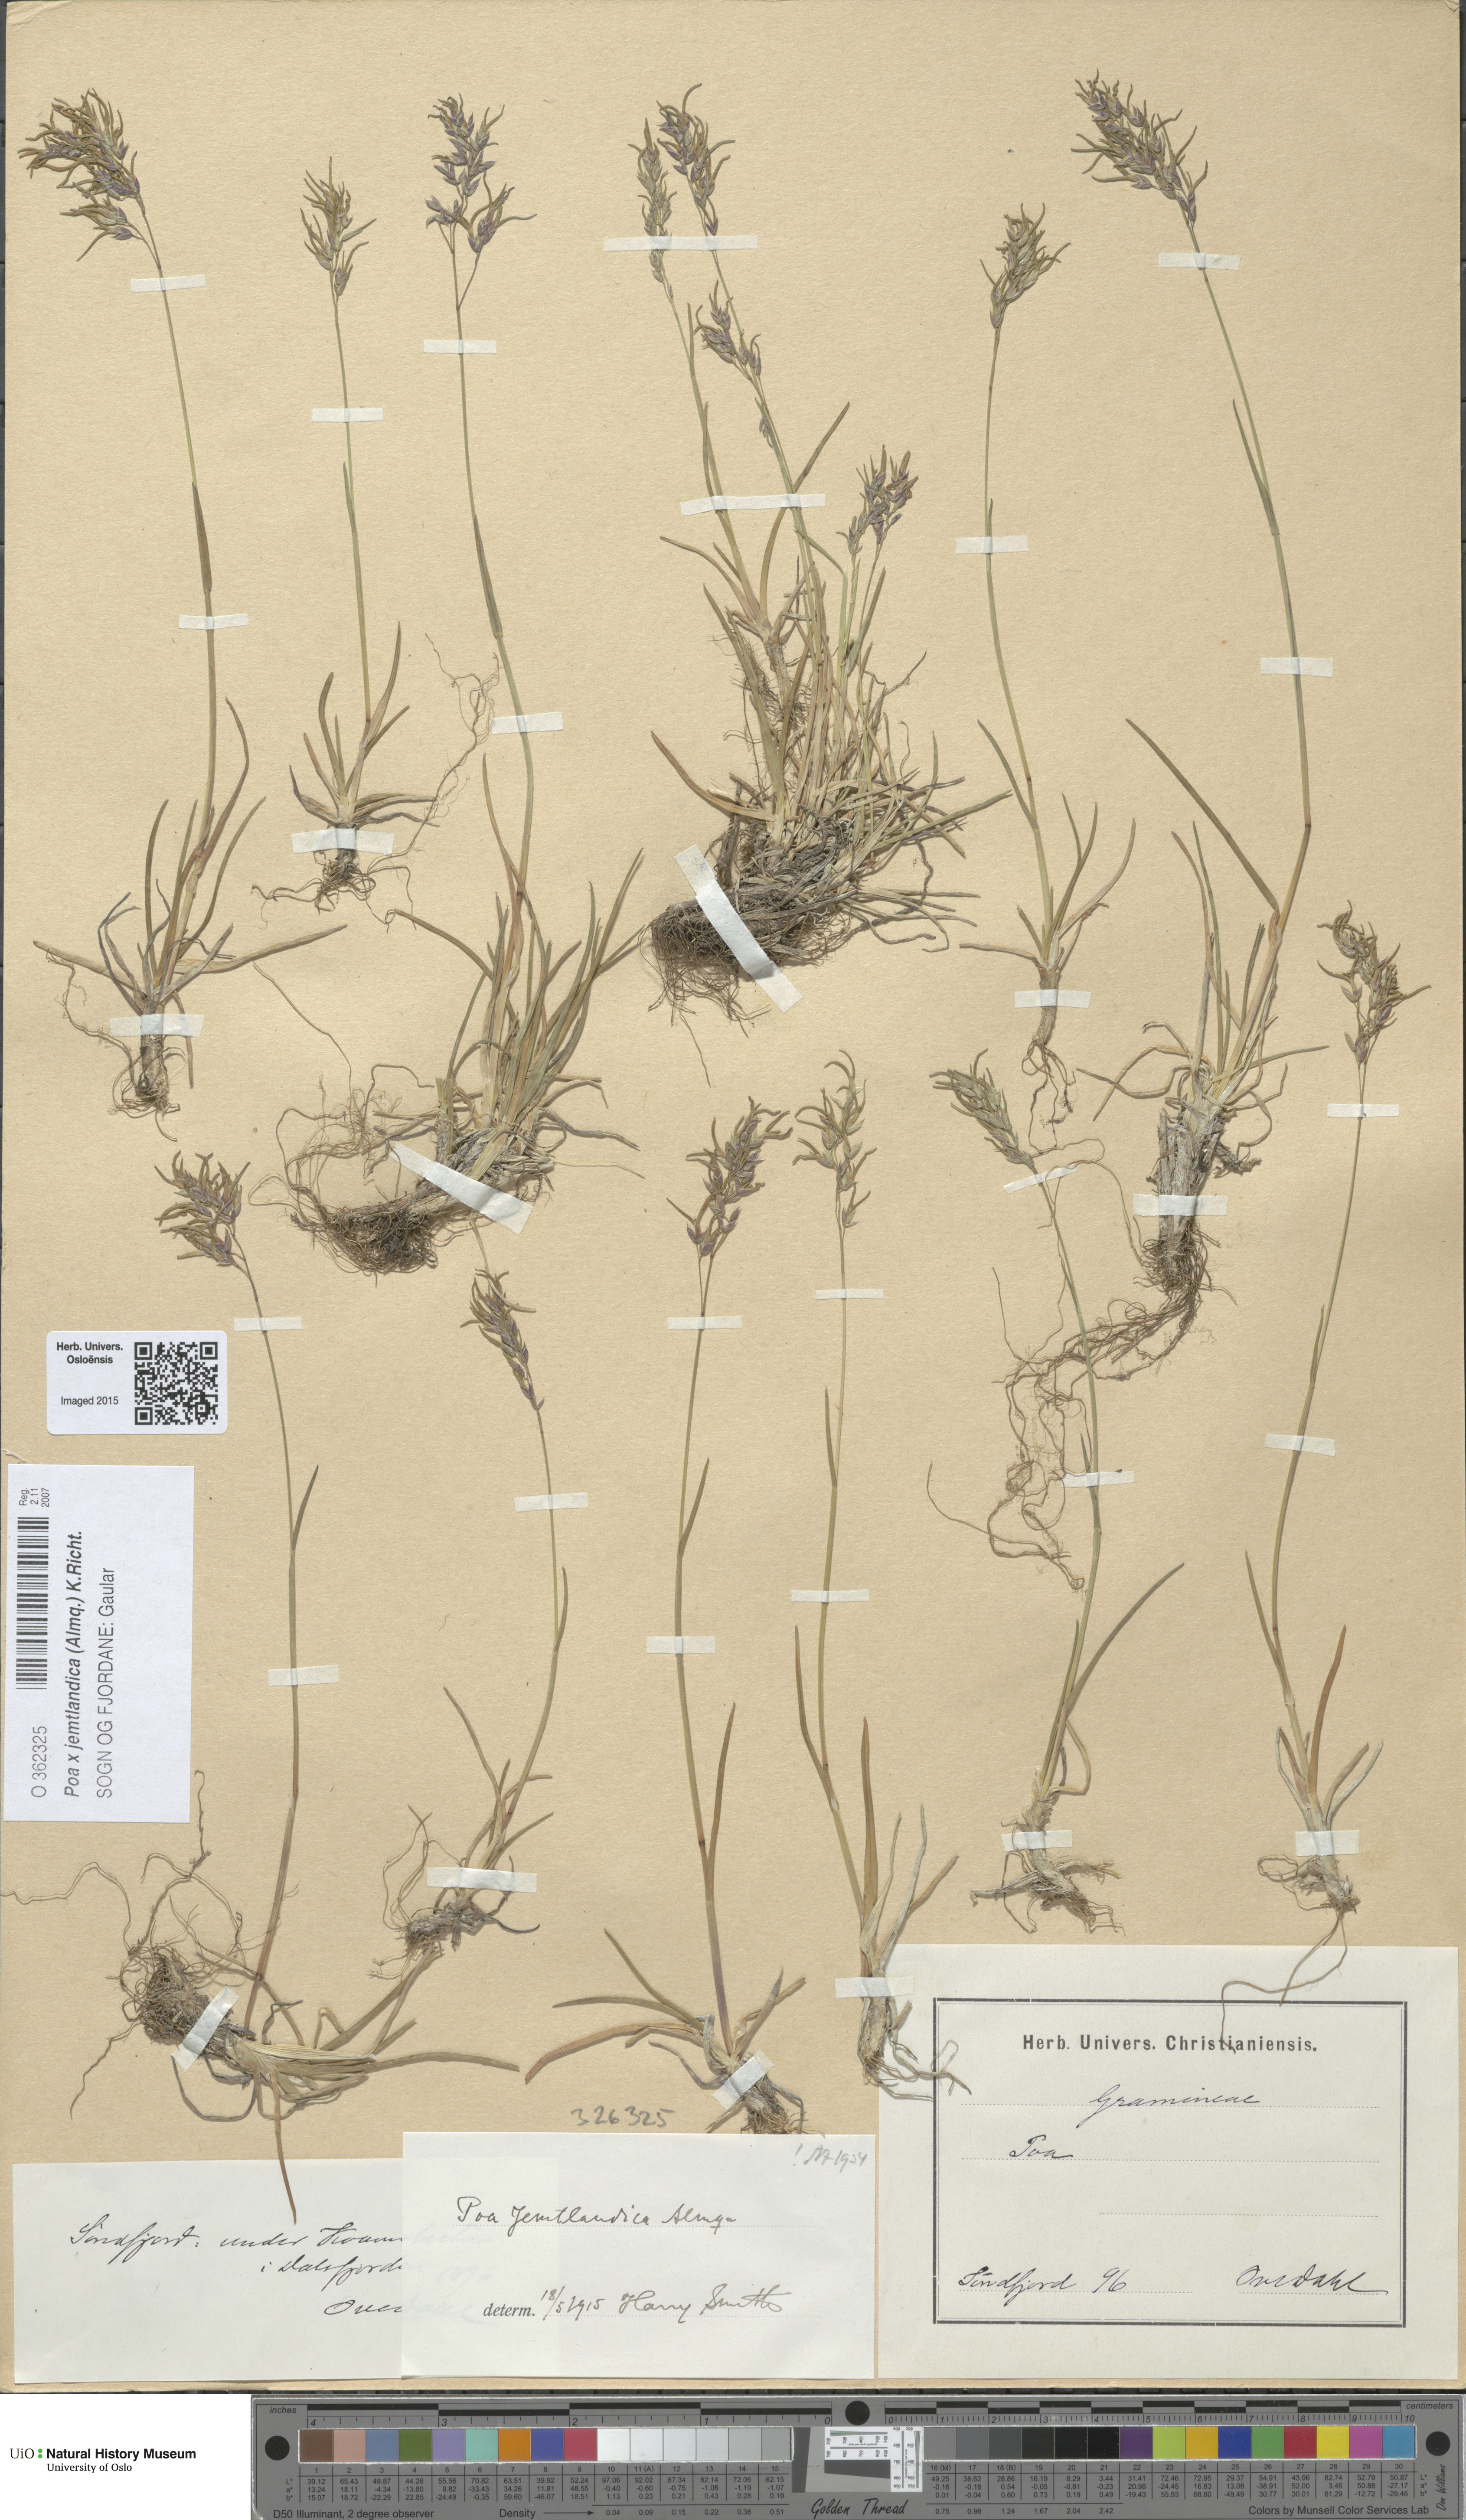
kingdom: Plantae
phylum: Tracheophyta
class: Liliopsida
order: Poales
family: Poaceae
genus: Poa
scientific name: Poa jemtlandica
